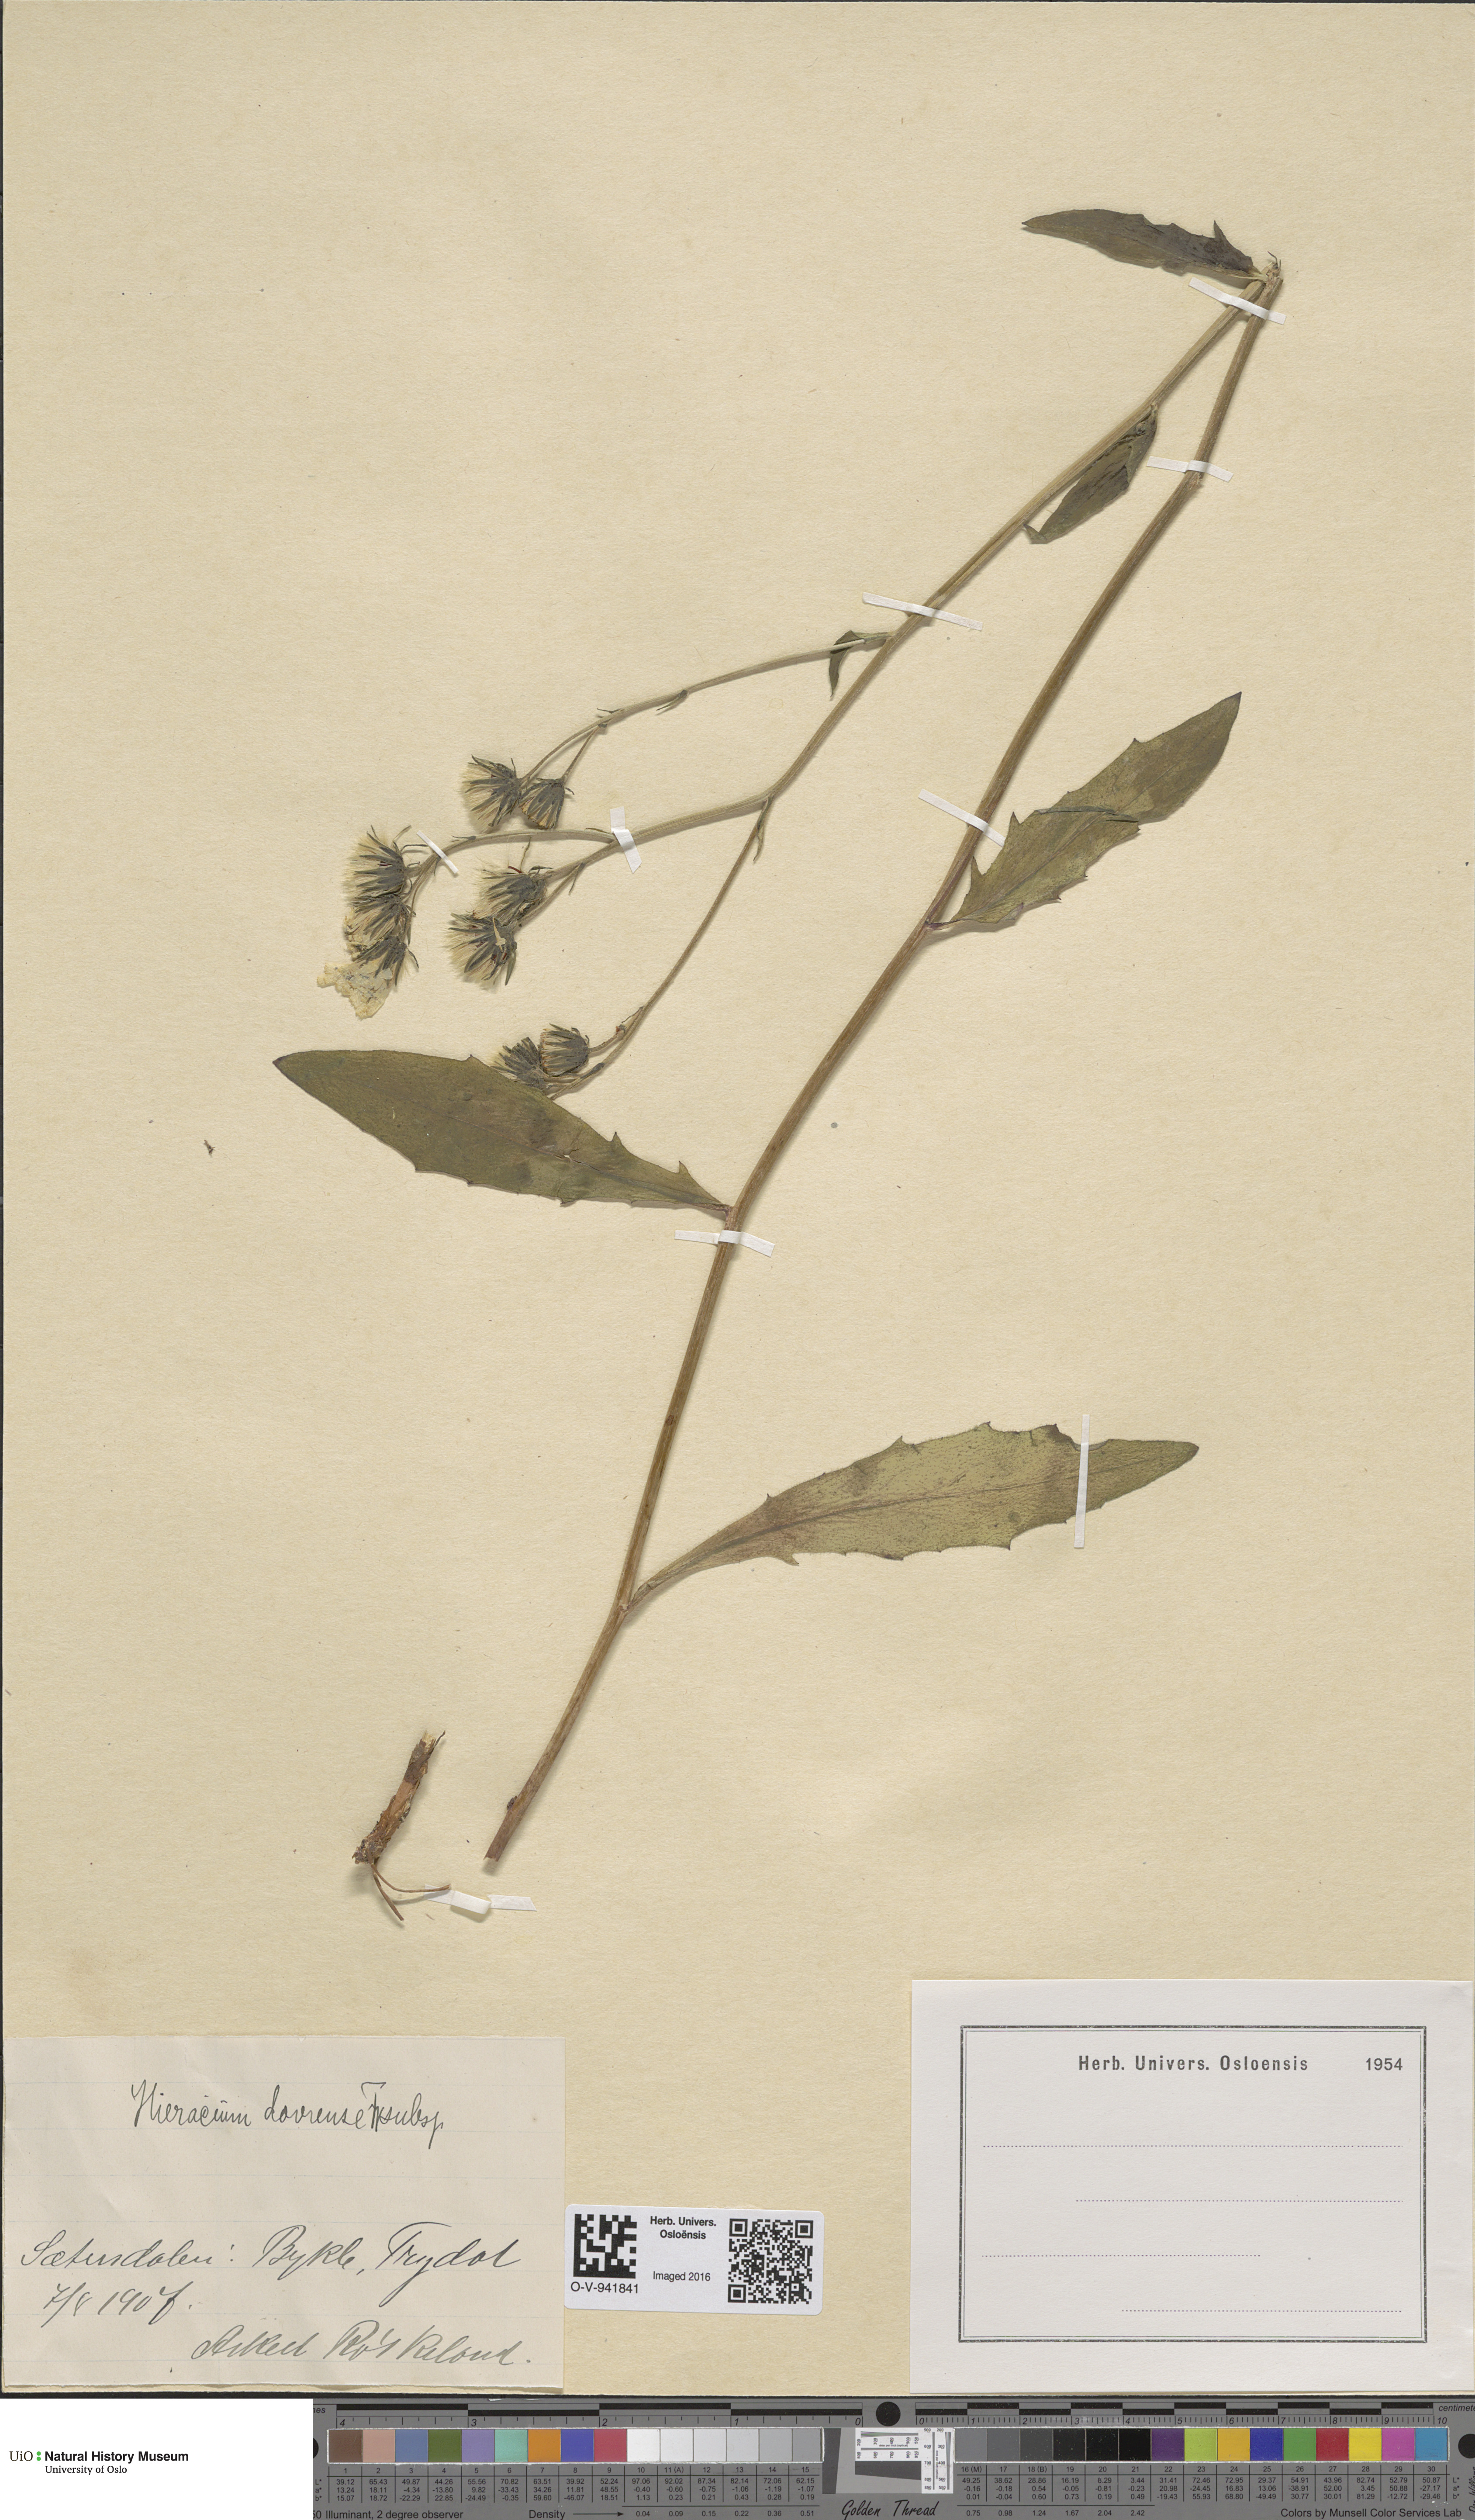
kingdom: Plantae
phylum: Tracheophyta
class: Magnoliopsida
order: Asterales
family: Asteraceae
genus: Hieracium
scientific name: Hieracium dovrense
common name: Dovre hawkweed
